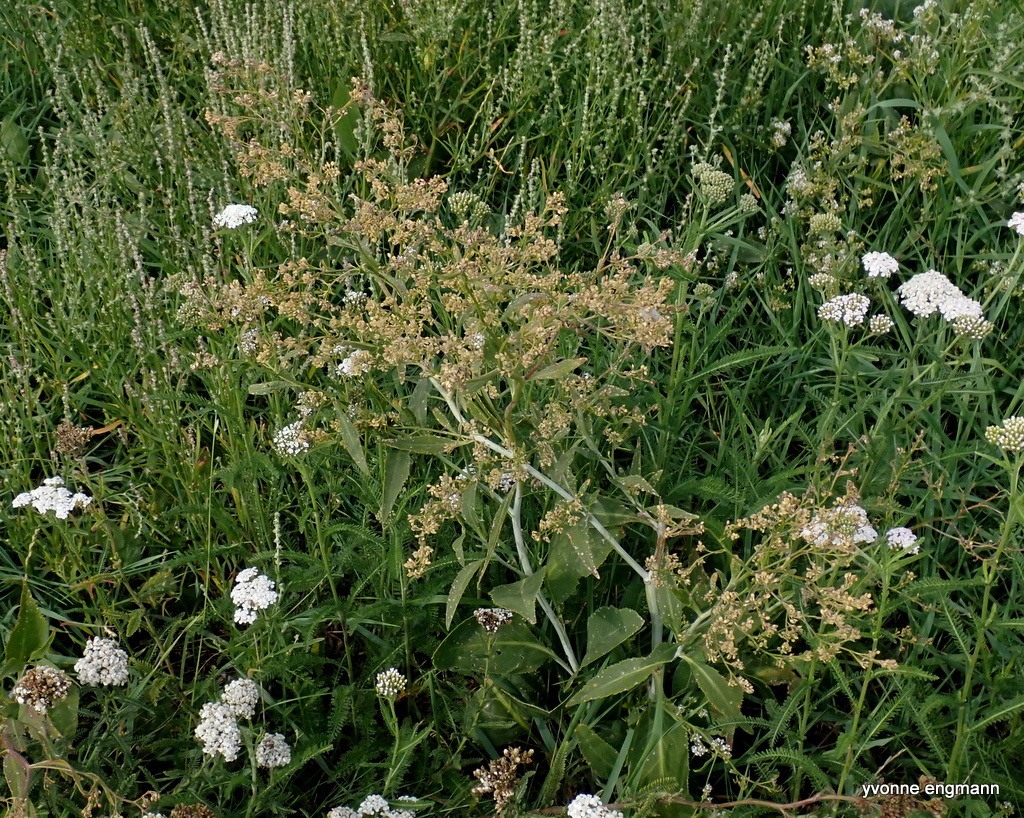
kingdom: Plantae
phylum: Tracheophyta
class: Magnoliopsida
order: Brassicales
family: Brassicaceae
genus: Lepidium
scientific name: Lepidium latifolium
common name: Strand-karse
